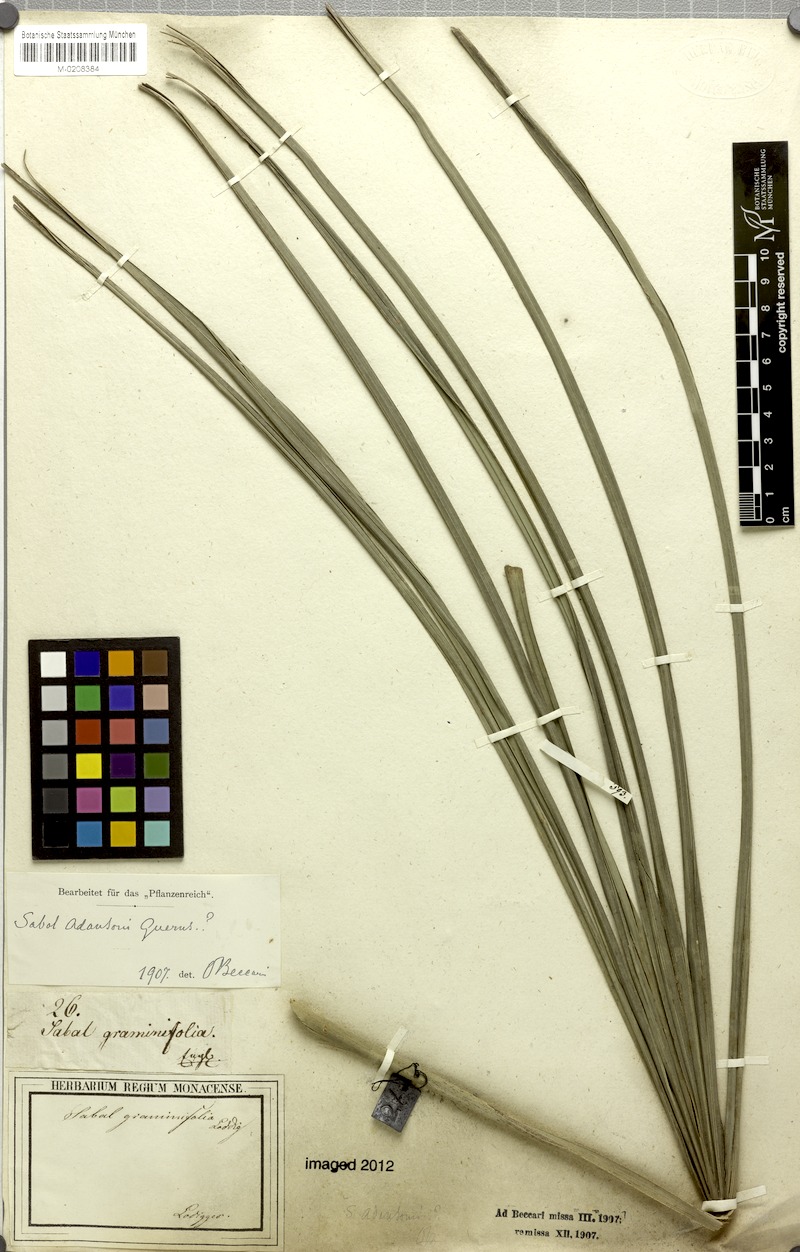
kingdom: Plantae
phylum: Tracheophyta
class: Liliopsida
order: Arecales
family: Arecaceae
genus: Sabal
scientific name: Sabal minor
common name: Dwarf palmetto
